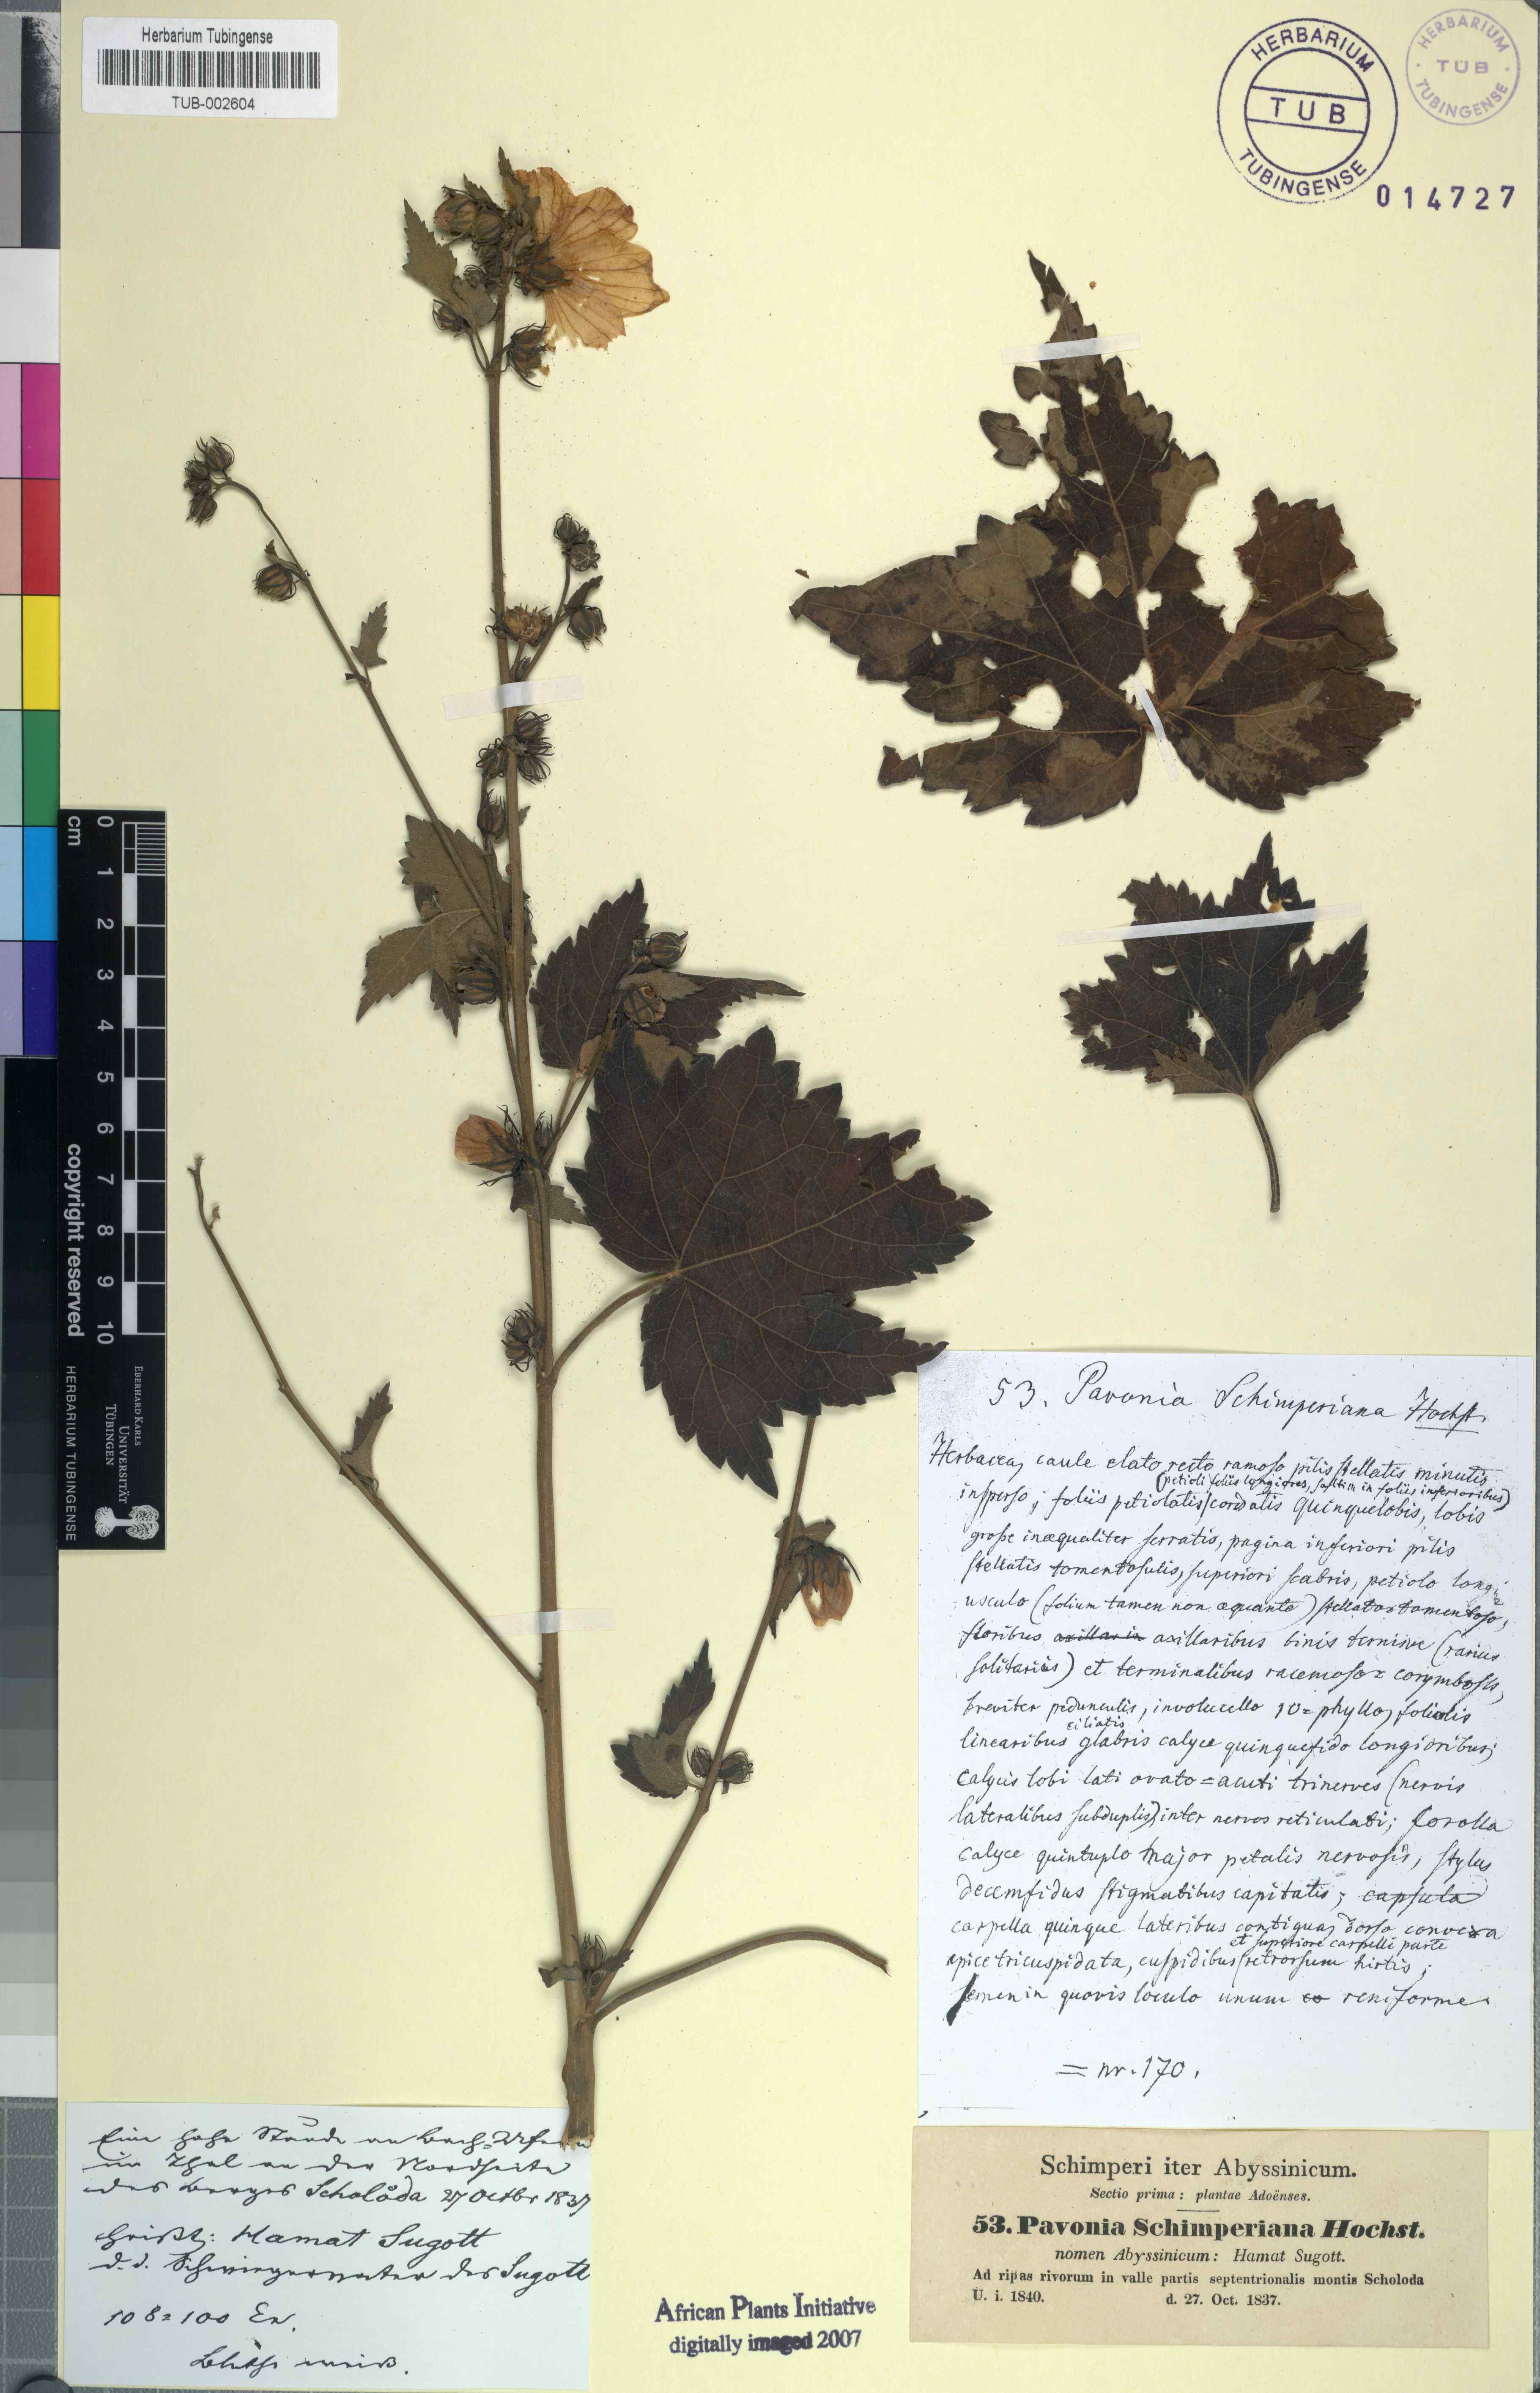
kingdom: Plantae
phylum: Tracheophyta
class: Magnoliopsida
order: Malvales
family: Malvaceae
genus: Pavonia
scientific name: Pavonia schimperiana
